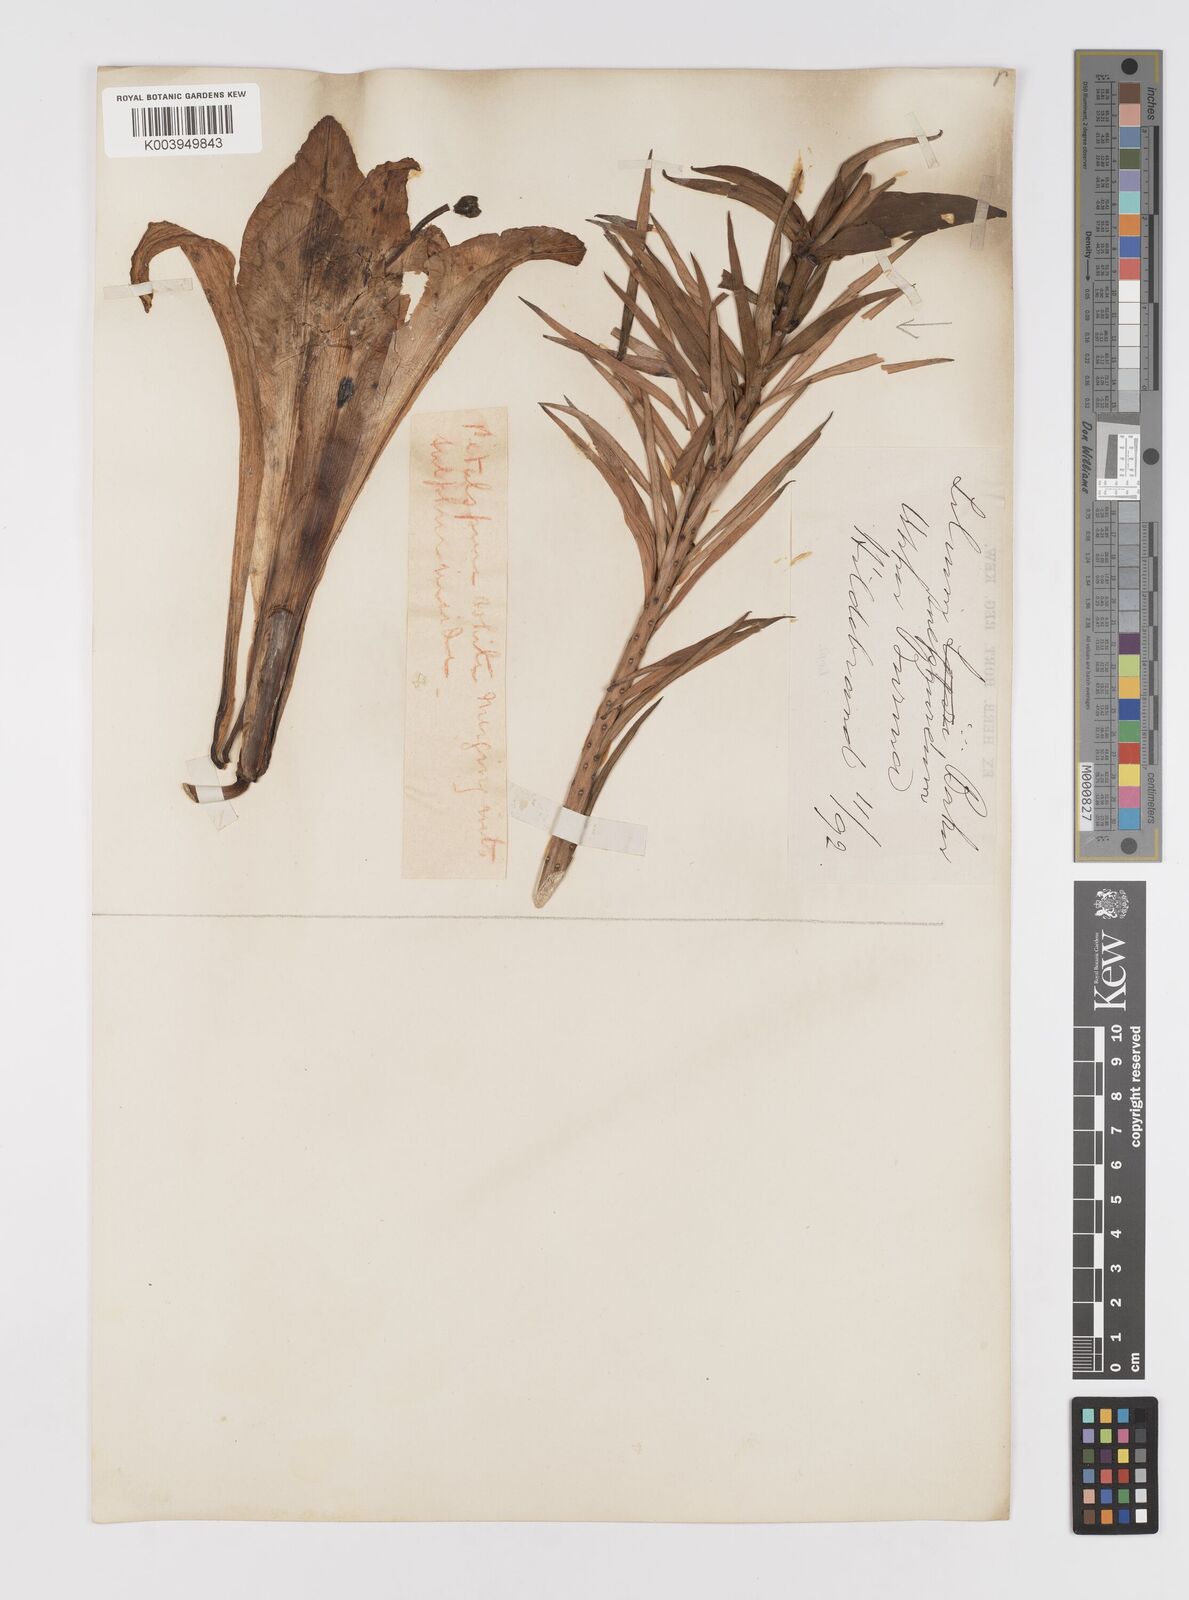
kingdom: Plantae
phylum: Tracheophyta
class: Liliopsida
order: Liliales
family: Liliaceae
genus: Lilium
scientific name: Lilium sulphureum
